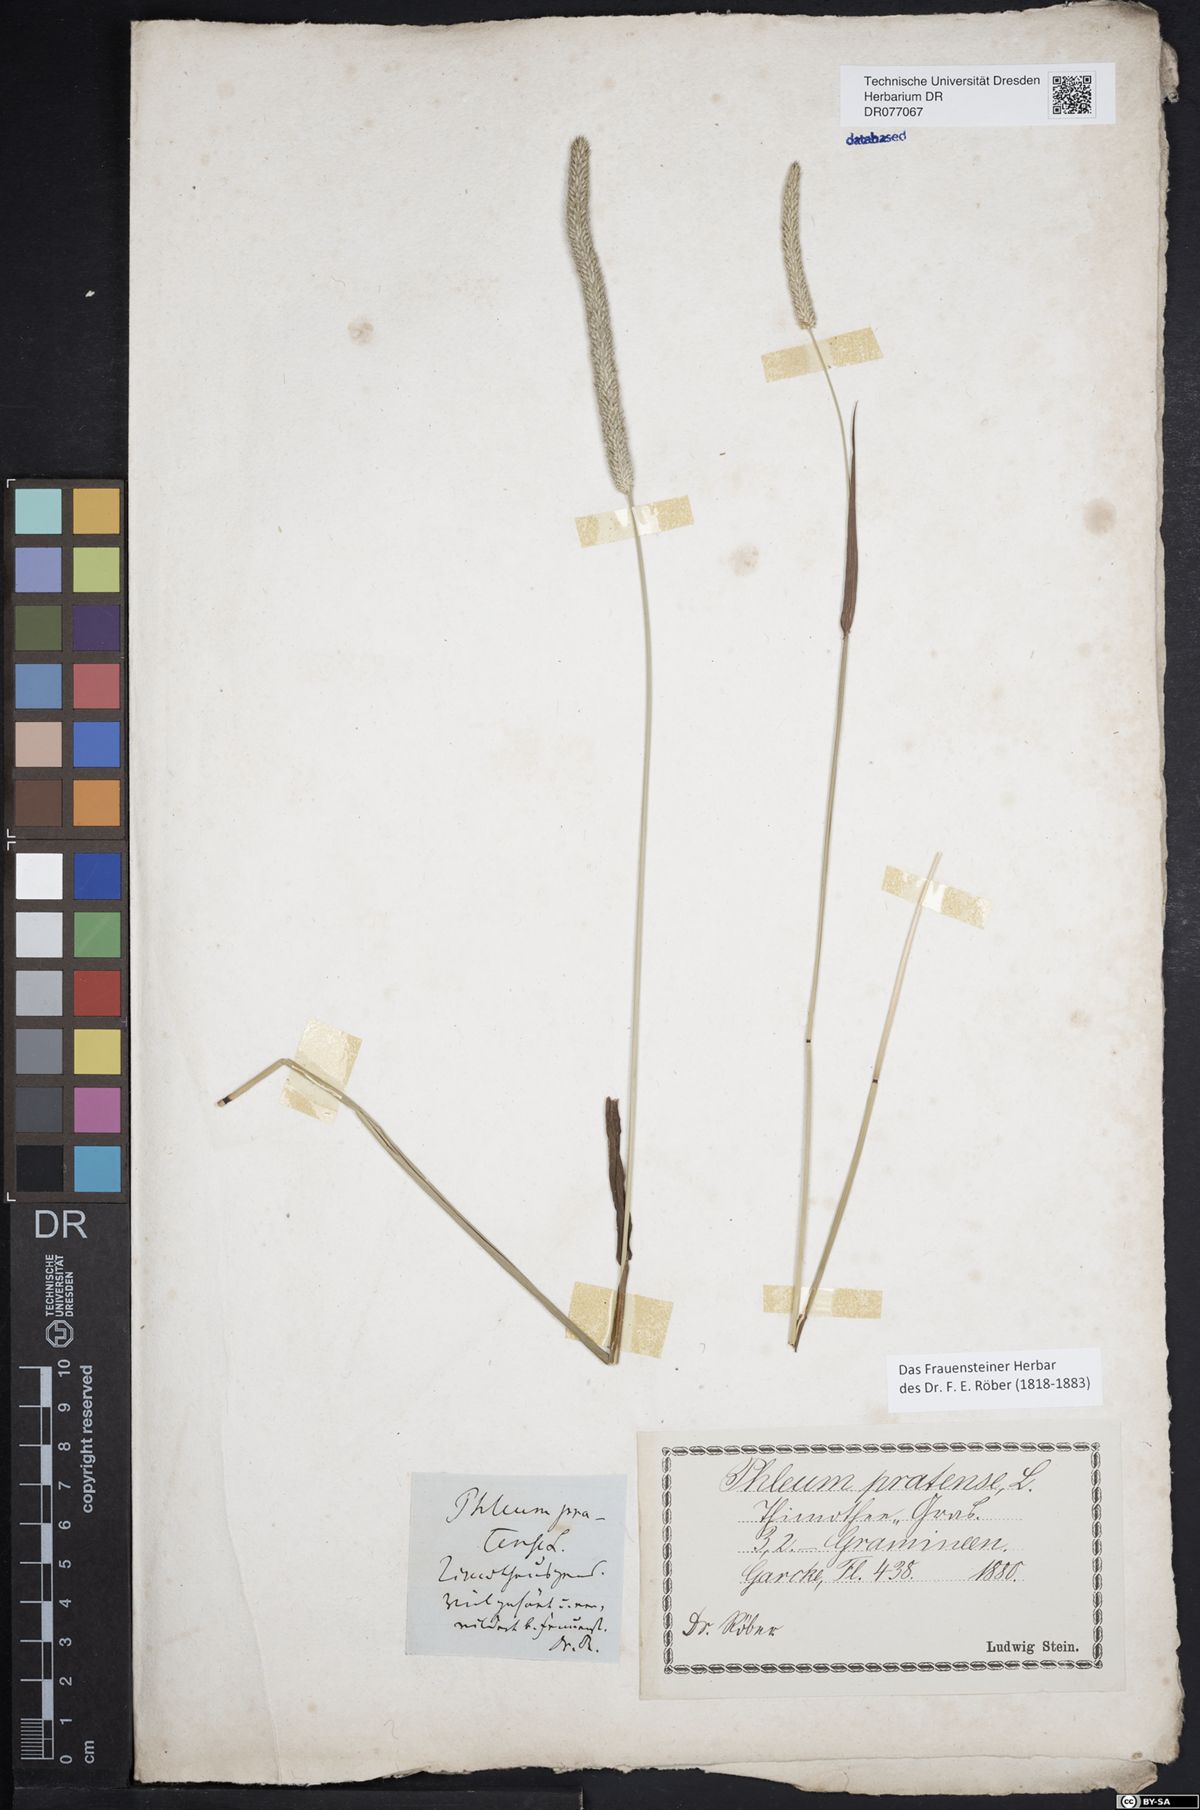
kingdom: Plantae
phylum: Tracheophyta
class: Liliopsida
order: Poales
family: Poaceae
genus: Phleum
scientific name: Phleum pratense
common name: Timothy grass
